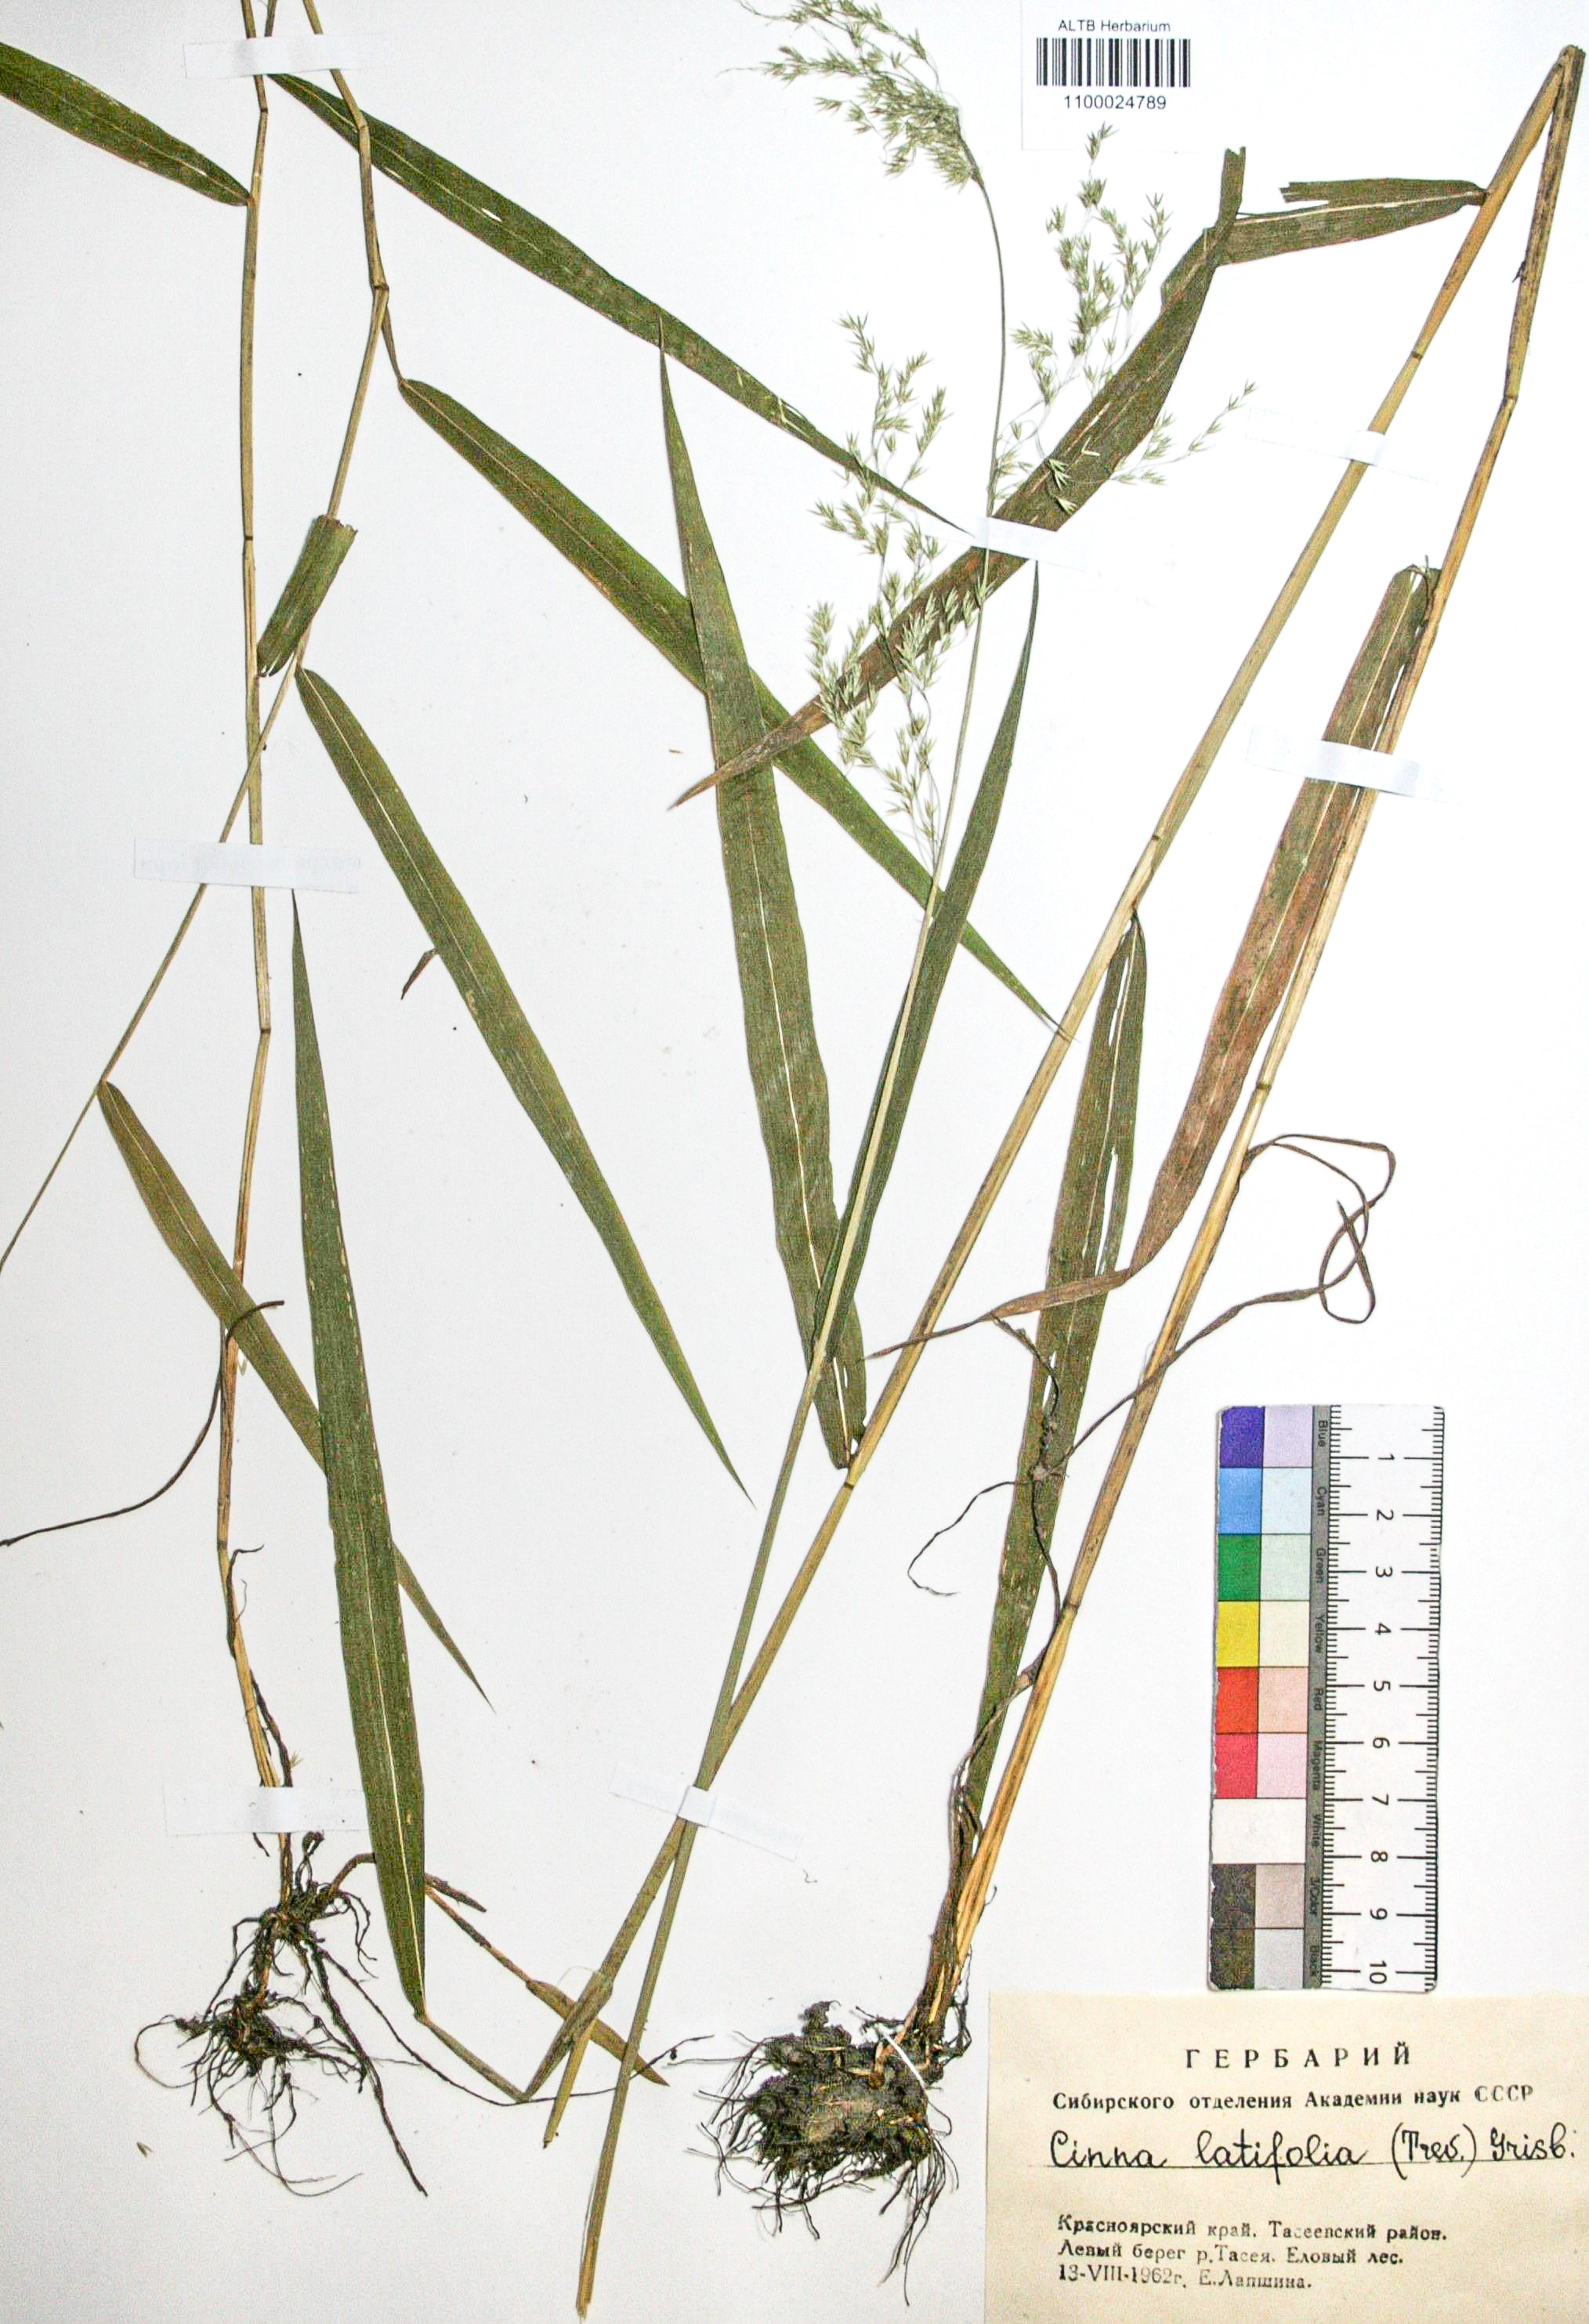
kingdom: Plantae
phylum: Tracheophyta
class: Liliopsida
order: Poales
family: Poaceae
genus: Cinna
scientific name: Cinna latifolia
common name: Drooping woodreed
